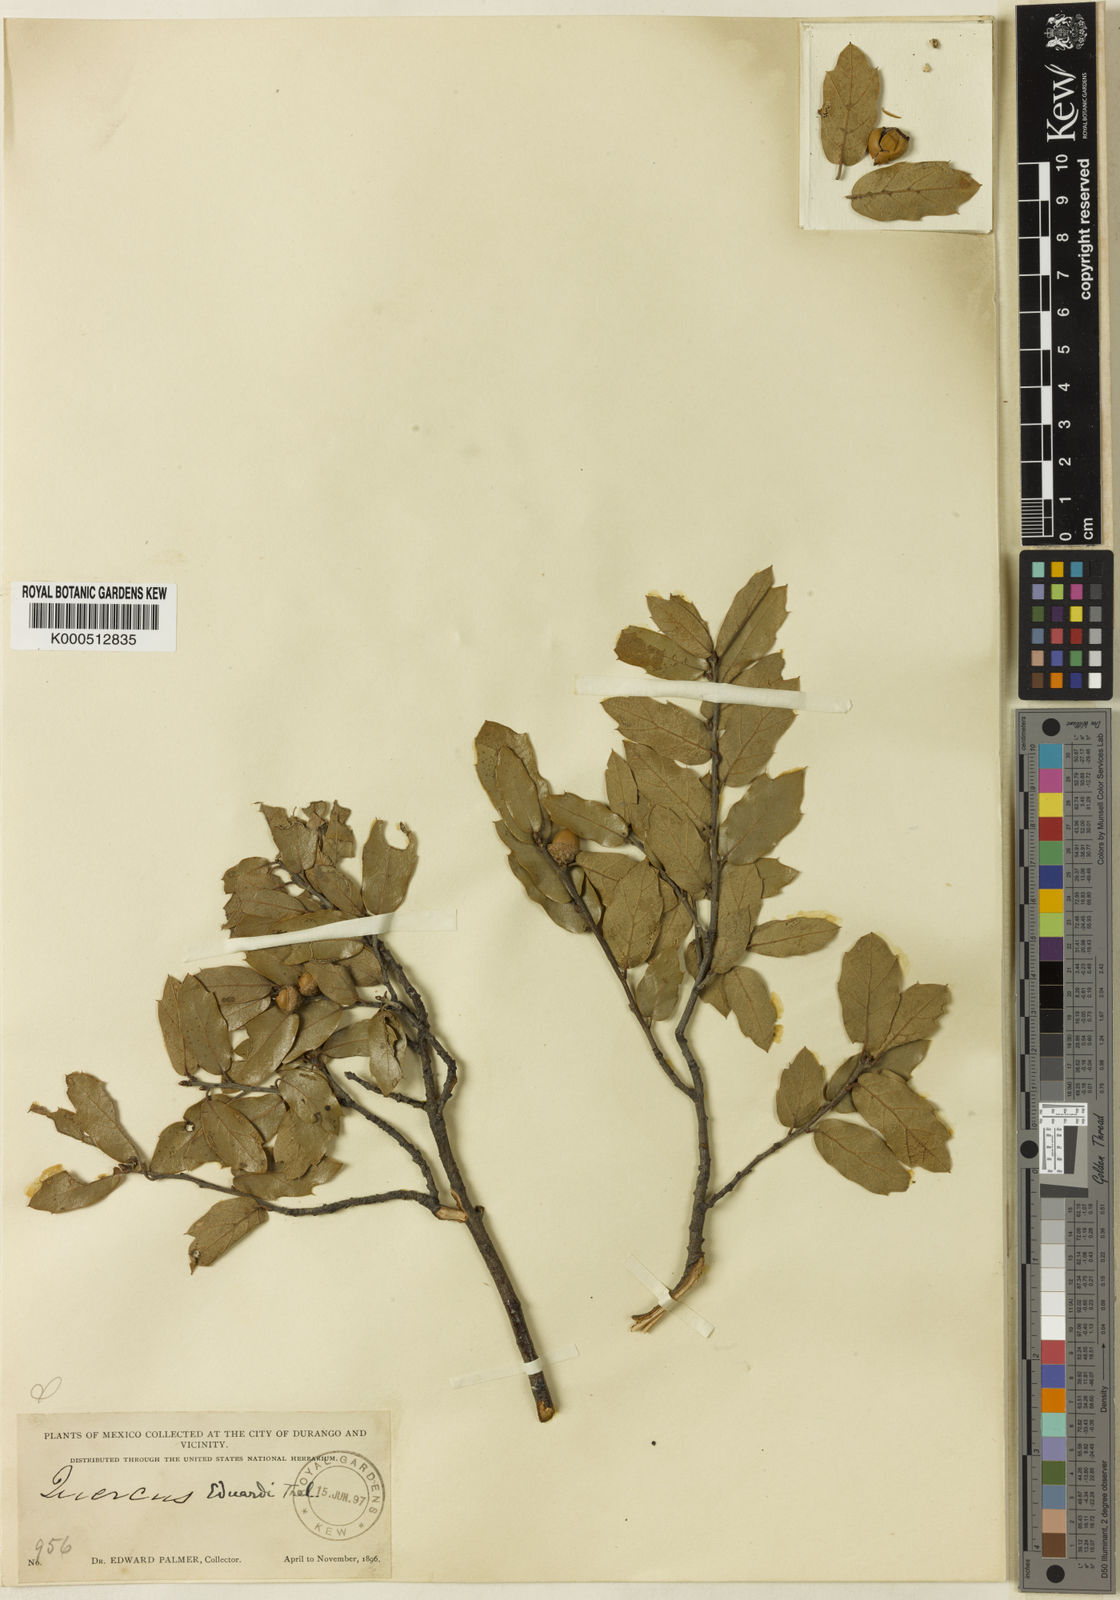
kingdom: Plantae
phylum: Tracheophyta
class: Magnoliopsida
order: Fagales
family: Fagaceae
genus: Quercus
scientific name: Quercus eduardi
